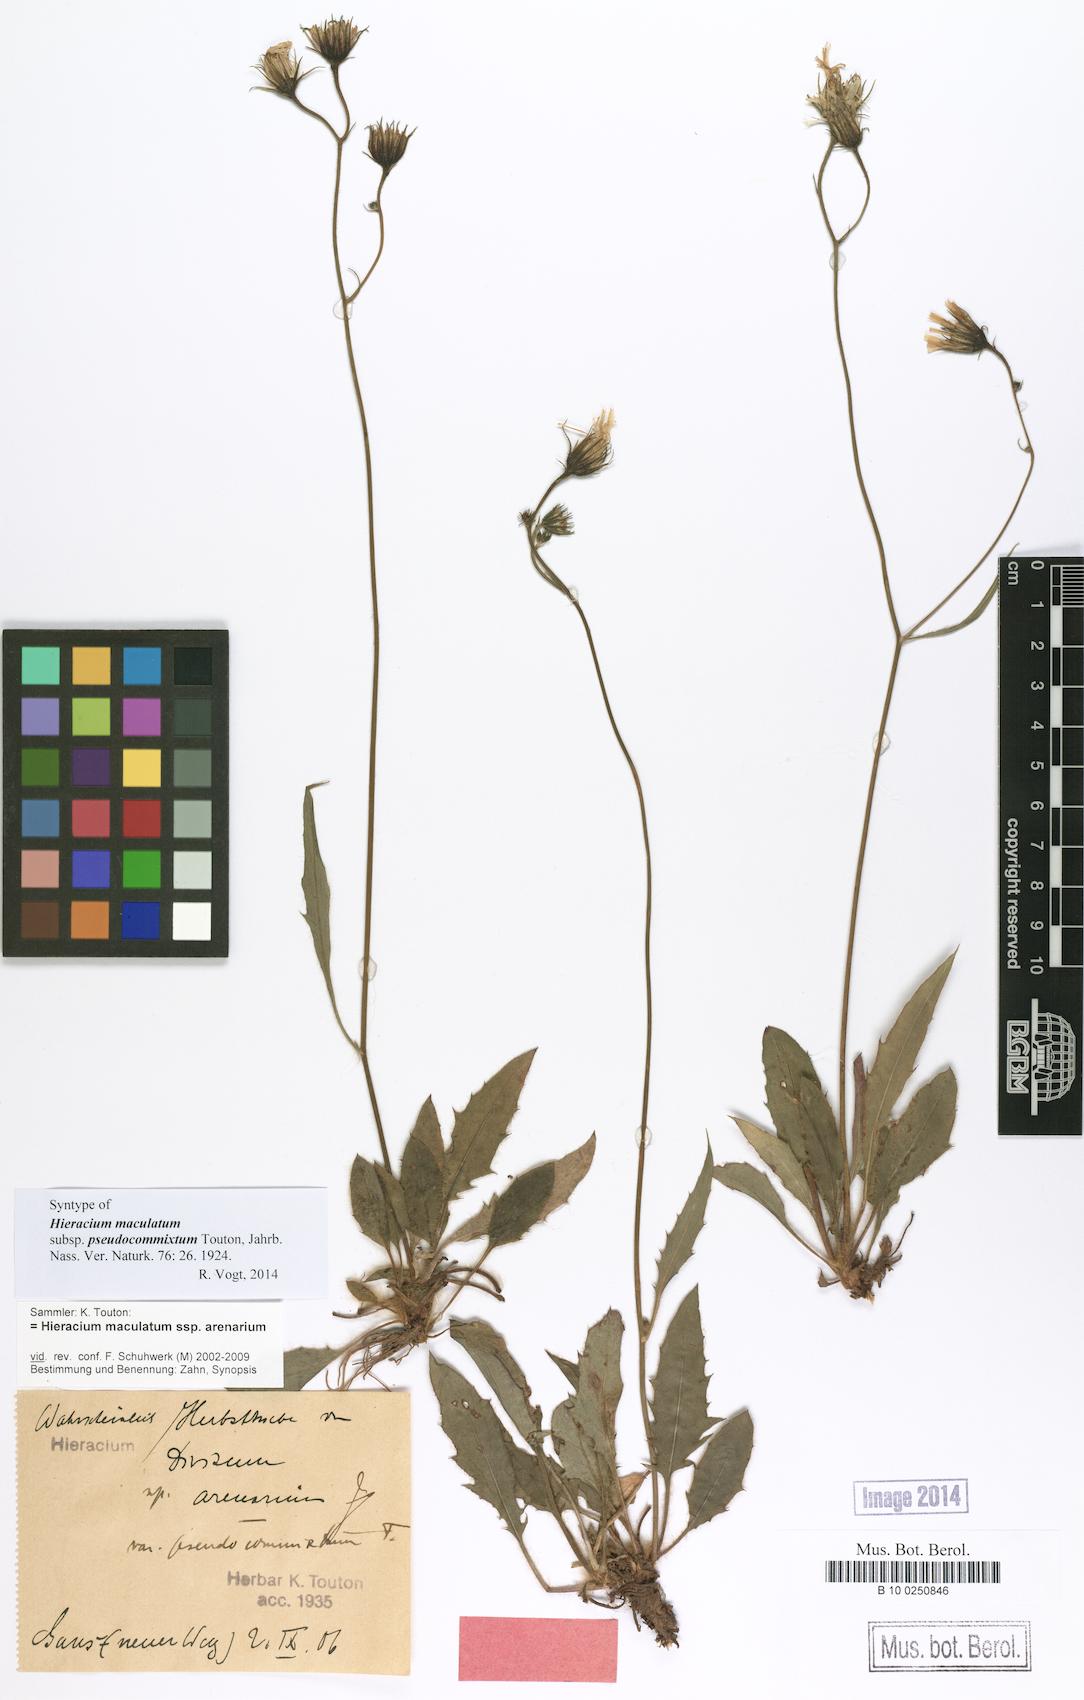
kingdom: Plantae
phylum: Tracheophyta
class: Magnoliopsida
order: Asterales
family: Asteraceae
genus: Hieracium
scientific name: Hieracium maculatum
